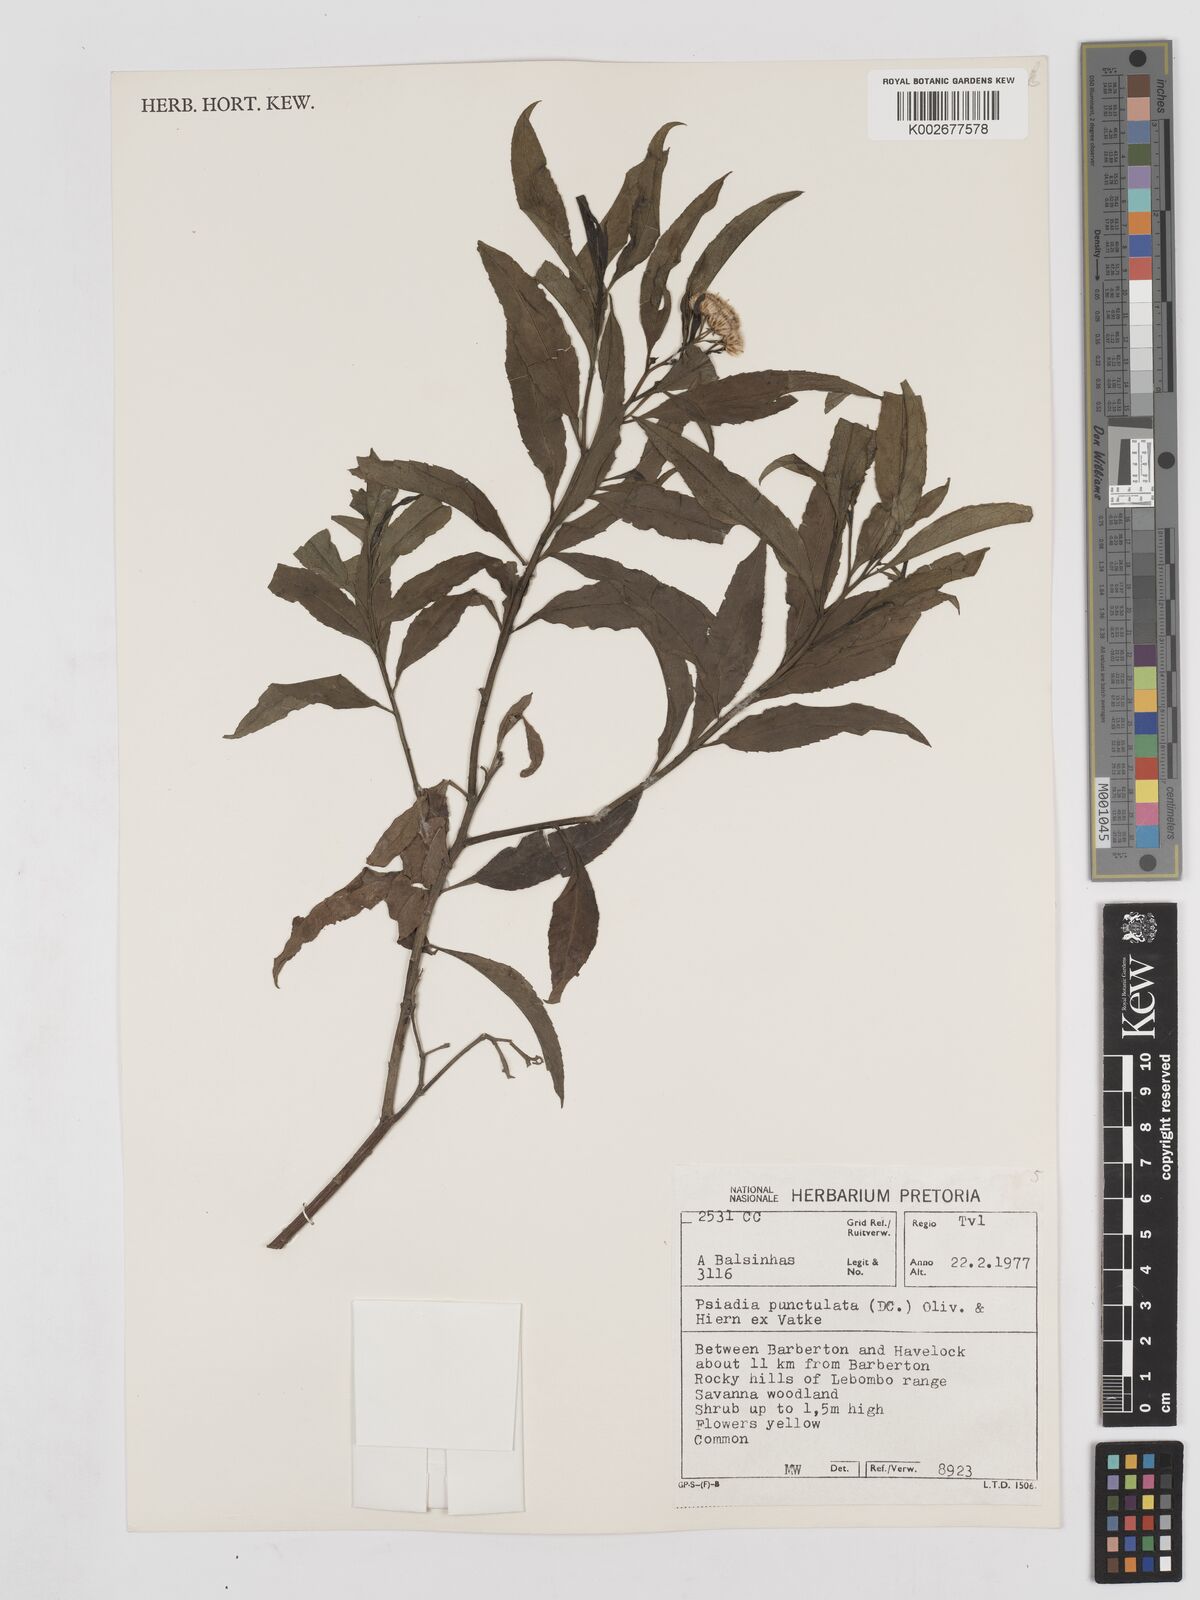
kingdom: Plantae
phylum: Tracheophyta
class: Magnoliopsida
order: Asterales
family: Asteraceae
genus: Psiadia
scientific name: Psiadia punctulata
